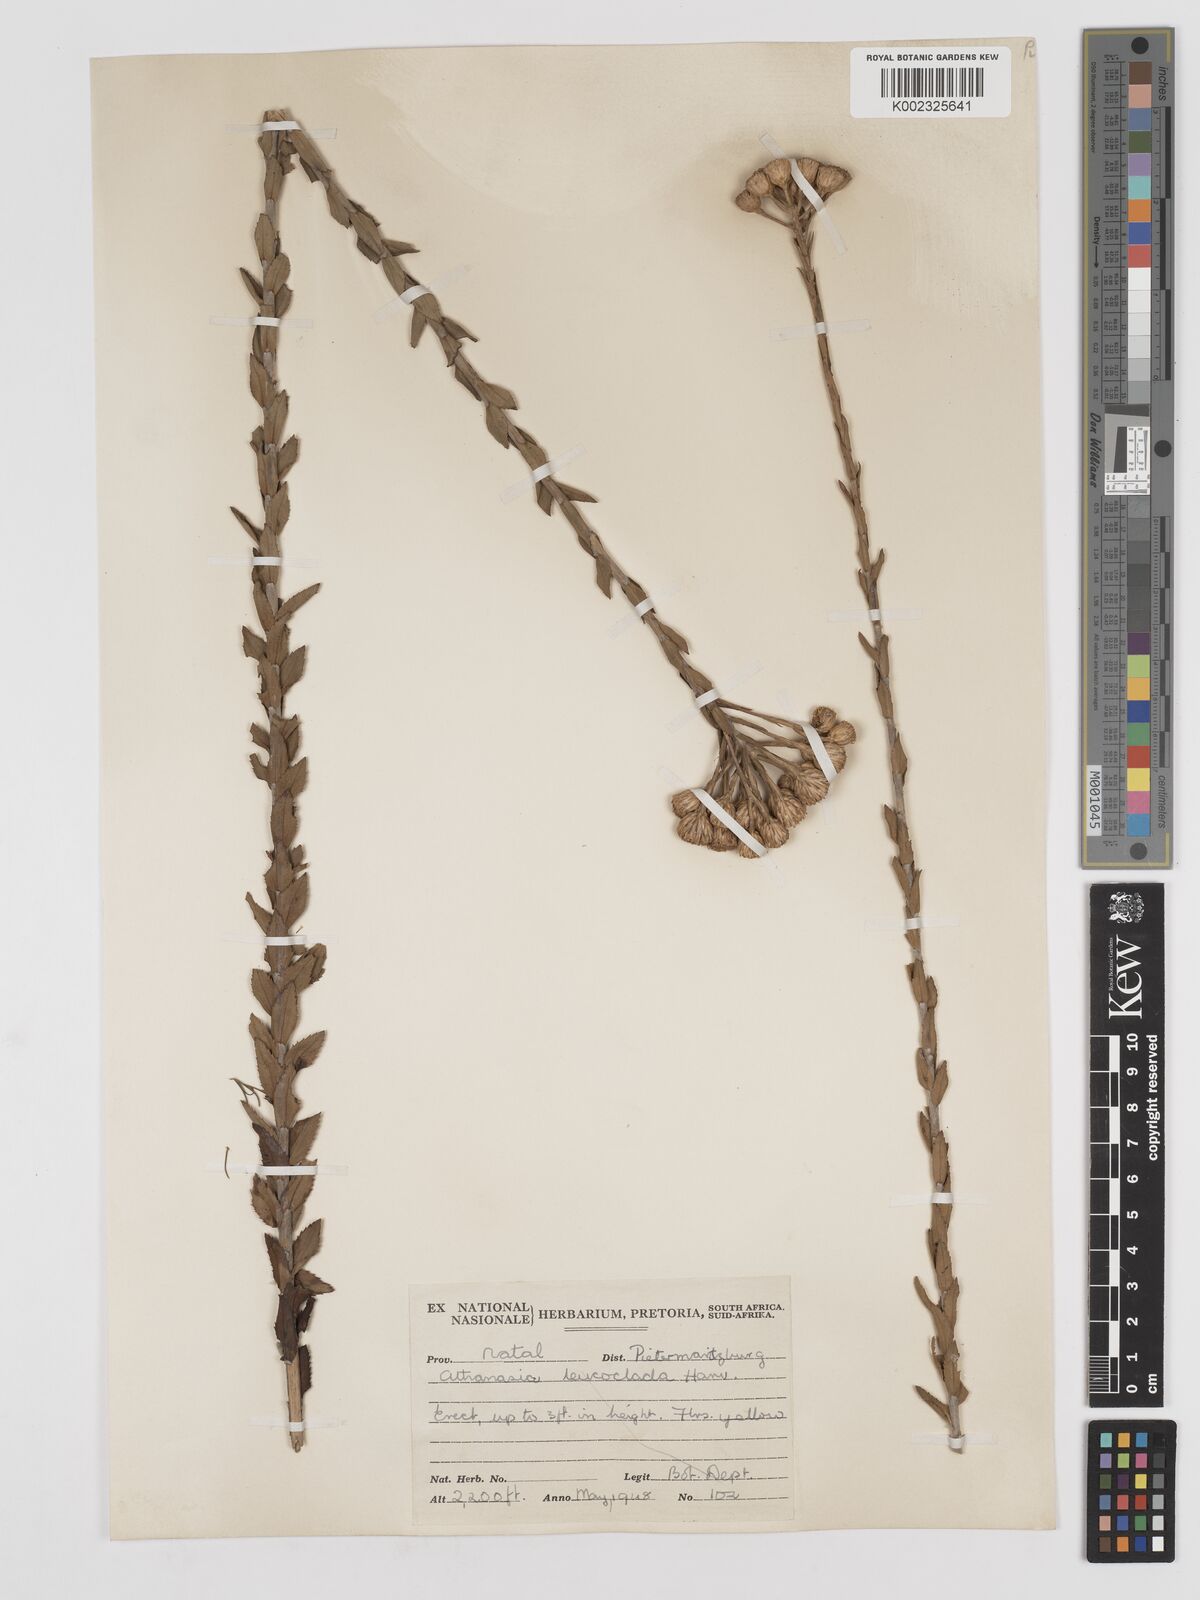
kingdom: Plantae
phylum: Tracheophyta
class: Magnoliopsida
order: Asterales
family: Asteraceae
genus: Inulanthera
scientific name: Inulanthera leucoclada
